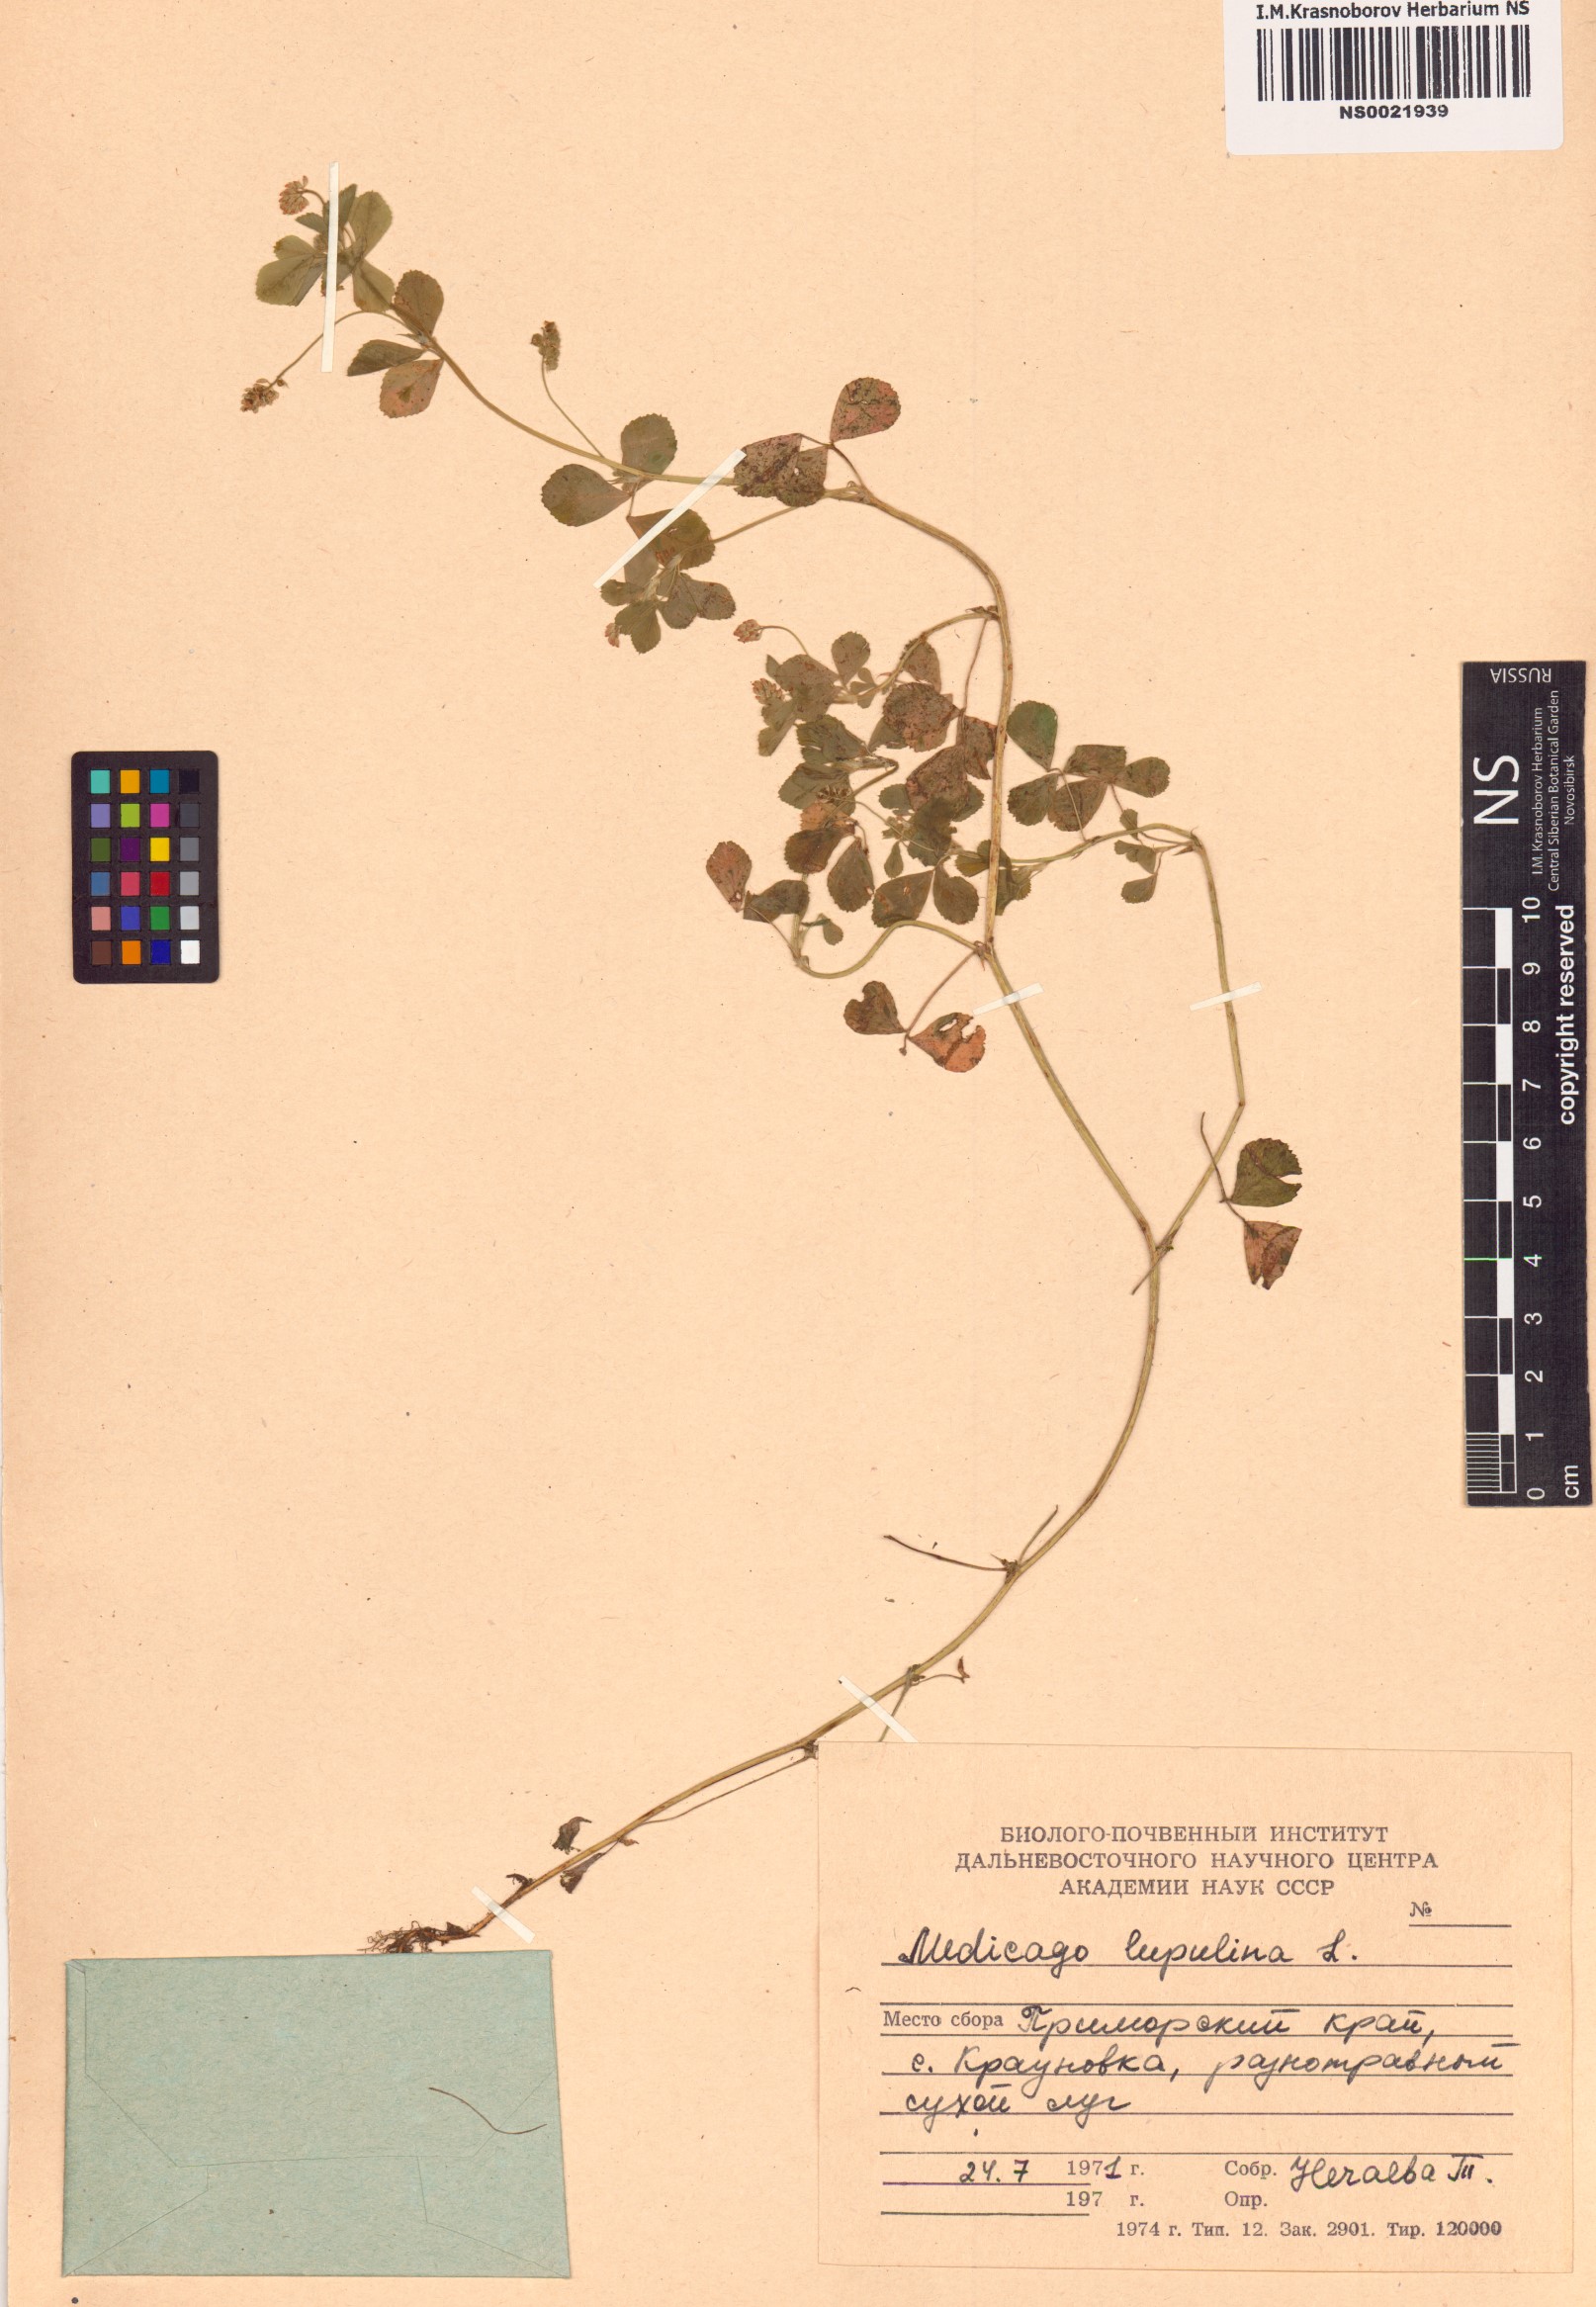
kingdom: Plantae
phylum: Tracheophyta
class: Magnoliopsida
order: Fabales
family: Fabaceae
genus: Medicago
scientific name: Medicago lupulina
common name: Black medick
